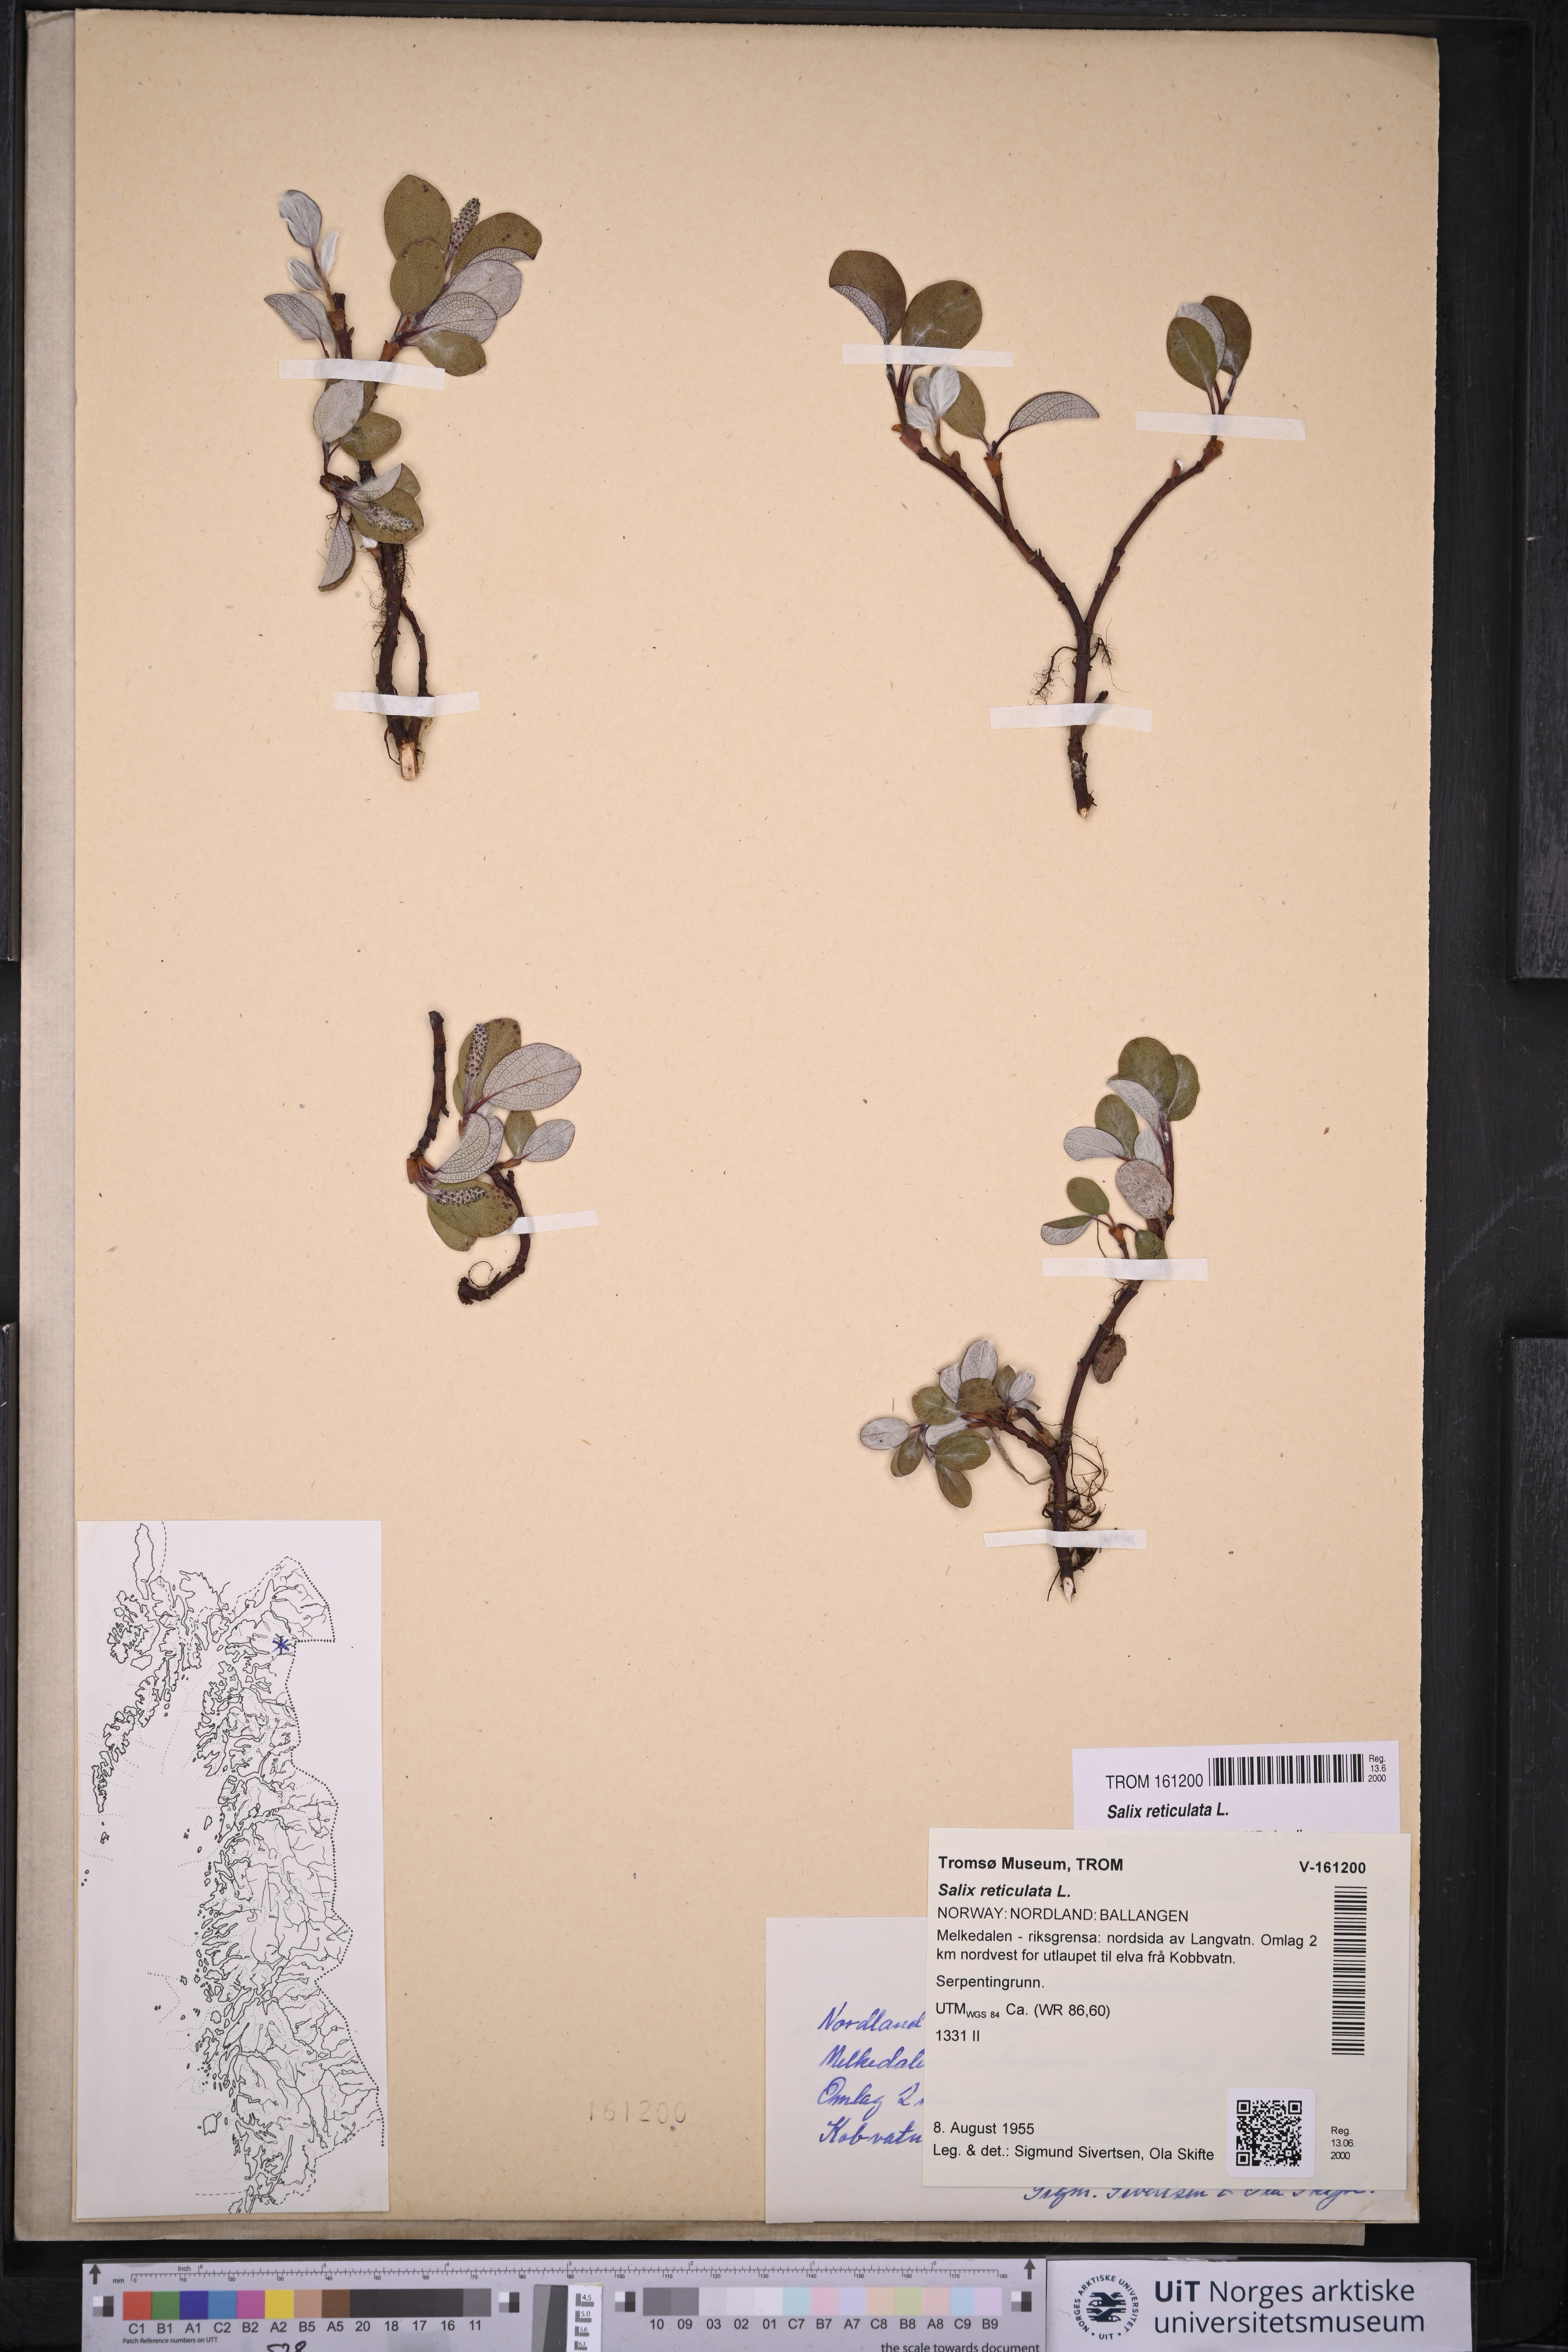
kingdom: Plantae
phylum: Tracheophyta
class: Magnoliopsida
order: Malpighiales
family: Salicaceae
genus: Salix
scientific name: Salix reticulata
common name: Net-leaved willow
